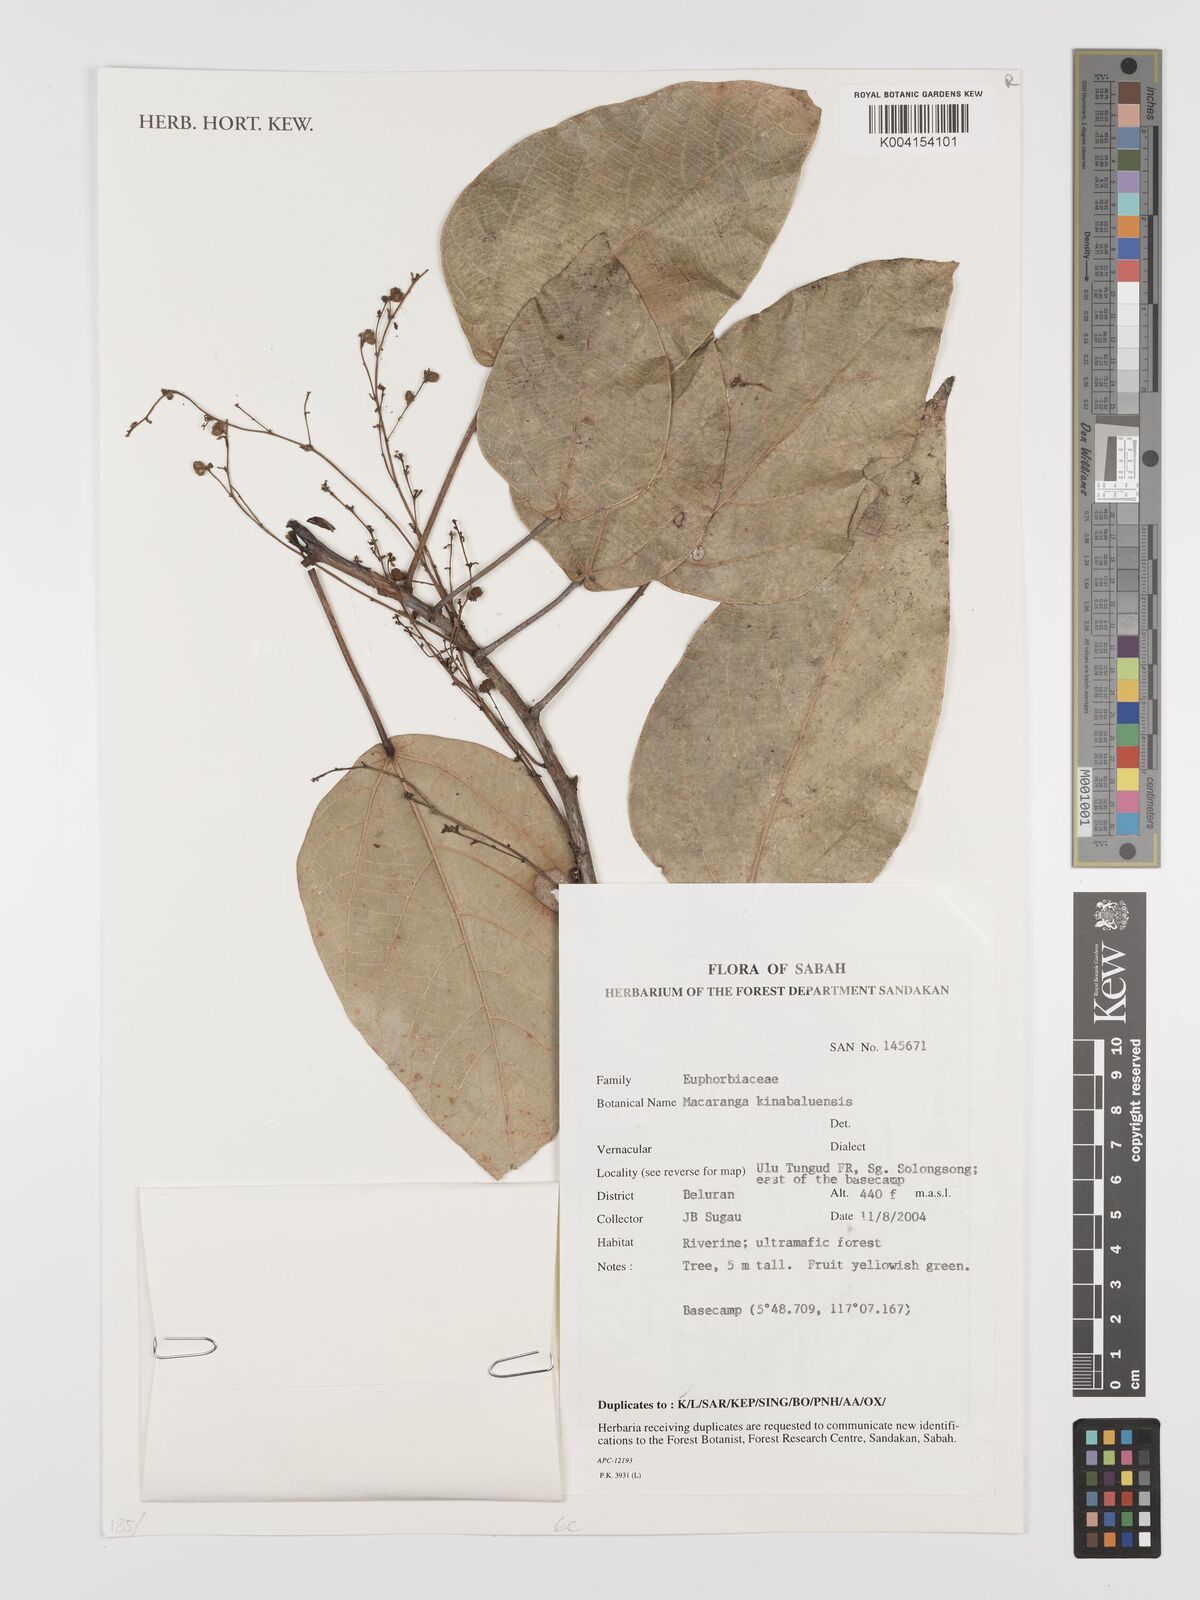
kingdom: Plantae
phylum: Tracheophyta
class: Magnoliopsida
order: Malpighiales
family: Euphorbiaceae
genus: Macaranga
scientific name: Macaranga kinabaluensis
